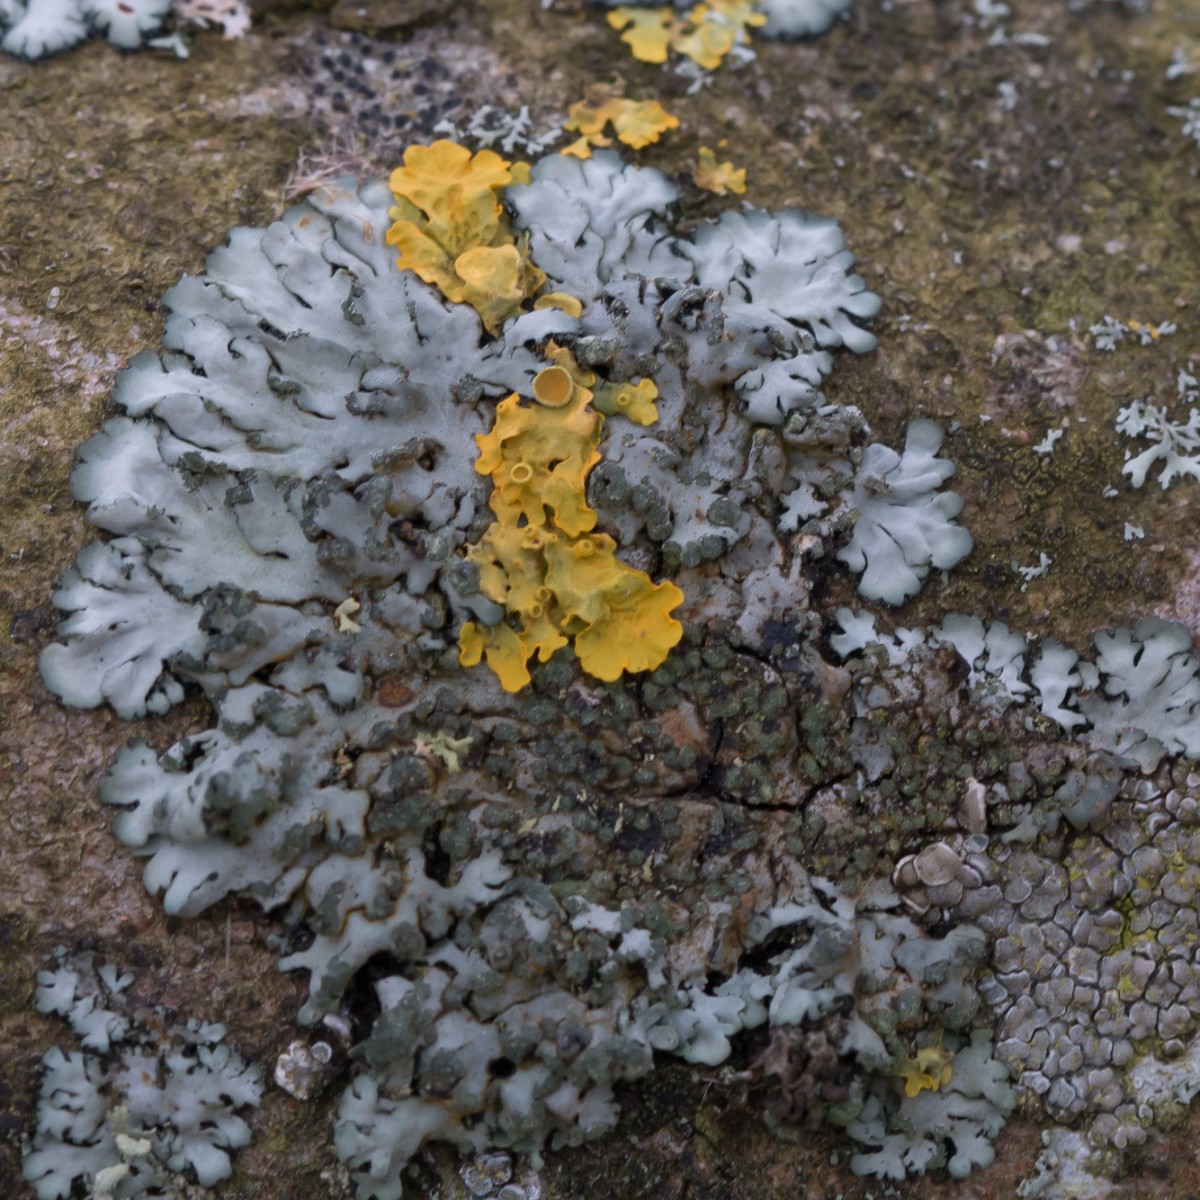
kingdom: Fungi
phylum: Ascomycota
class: Lecanoromycetes
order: Caliciales
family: Physciaceae
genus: Phaeophyscia
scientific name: Phaeophyscia orbicularis
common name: grågrøn rosetlav
